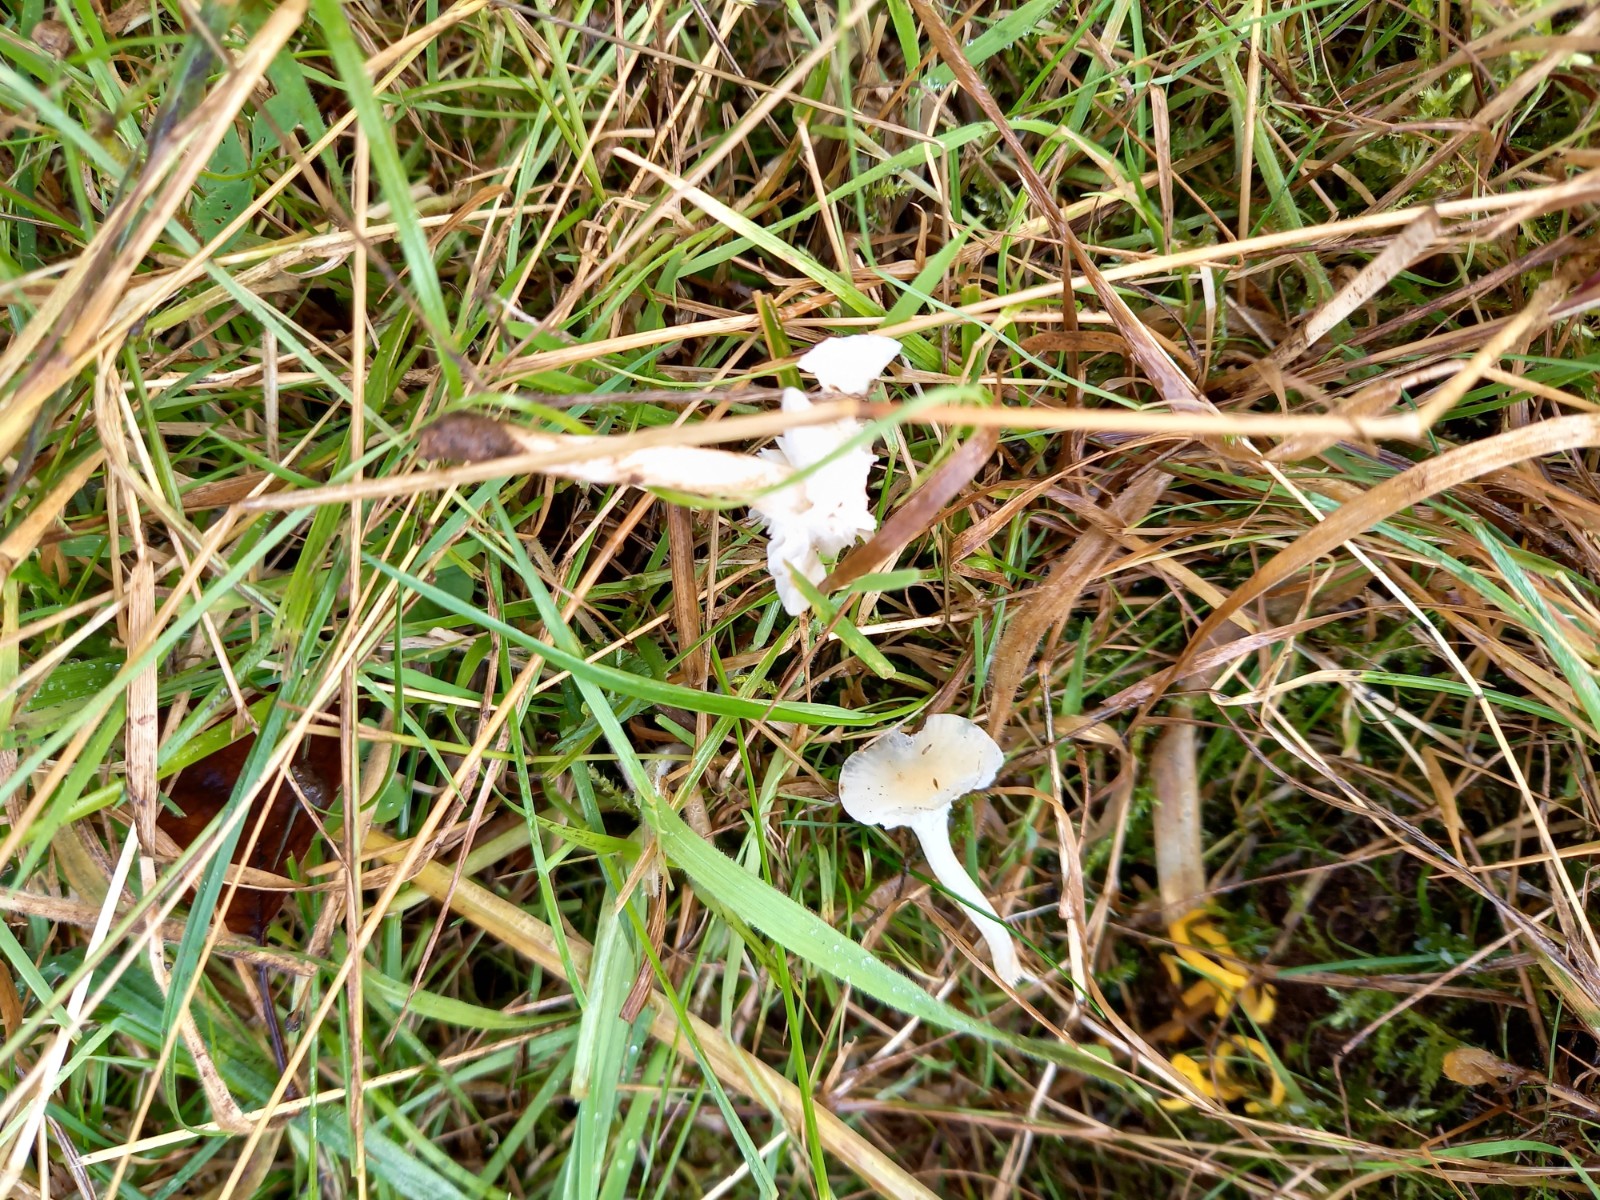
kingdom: Fungi
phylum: Basidiomycota
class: Agaricomycetes
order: Agaricales
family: Hygrophoraceae
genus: Cuphophyllus
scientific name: Cuphophyllus virgineus
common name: snehvid vokshat
